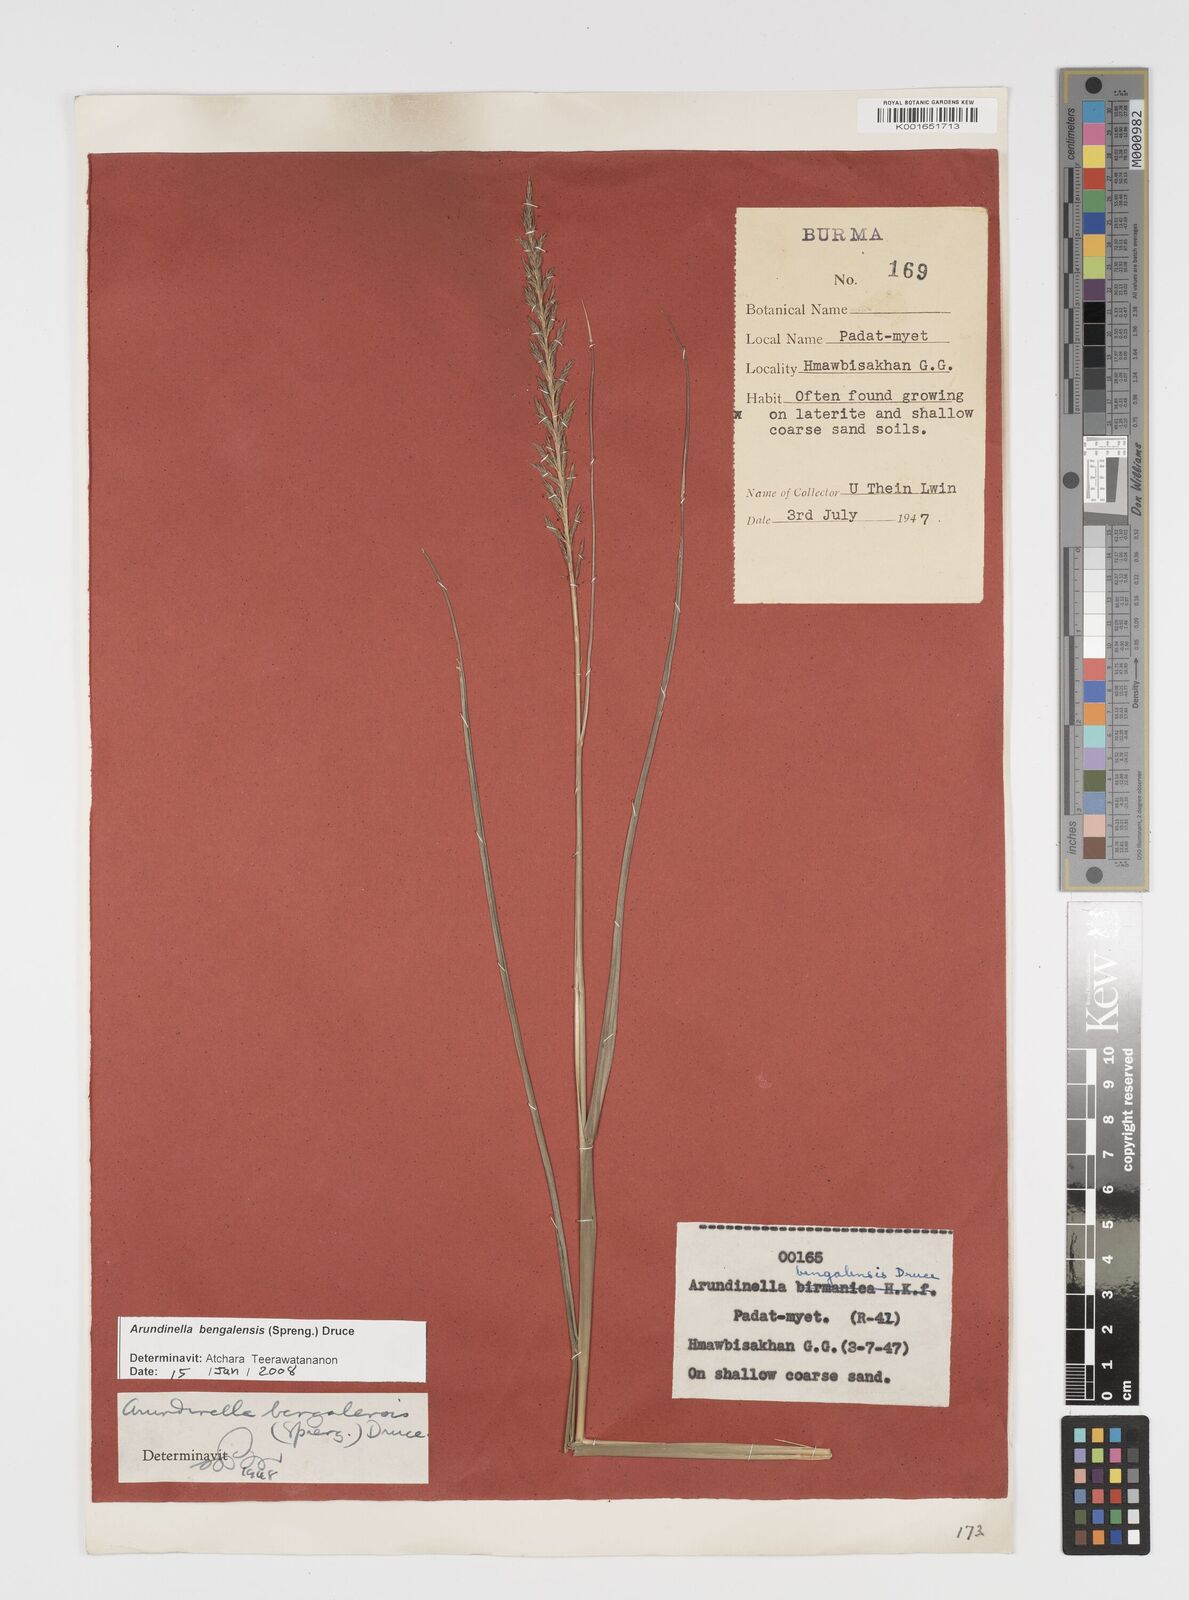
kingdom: Plantae
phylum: Tracheophyta
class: Liliopsida
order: Poales
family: Poaceae
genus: Arundinella
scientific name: Arundinella bengalensis
